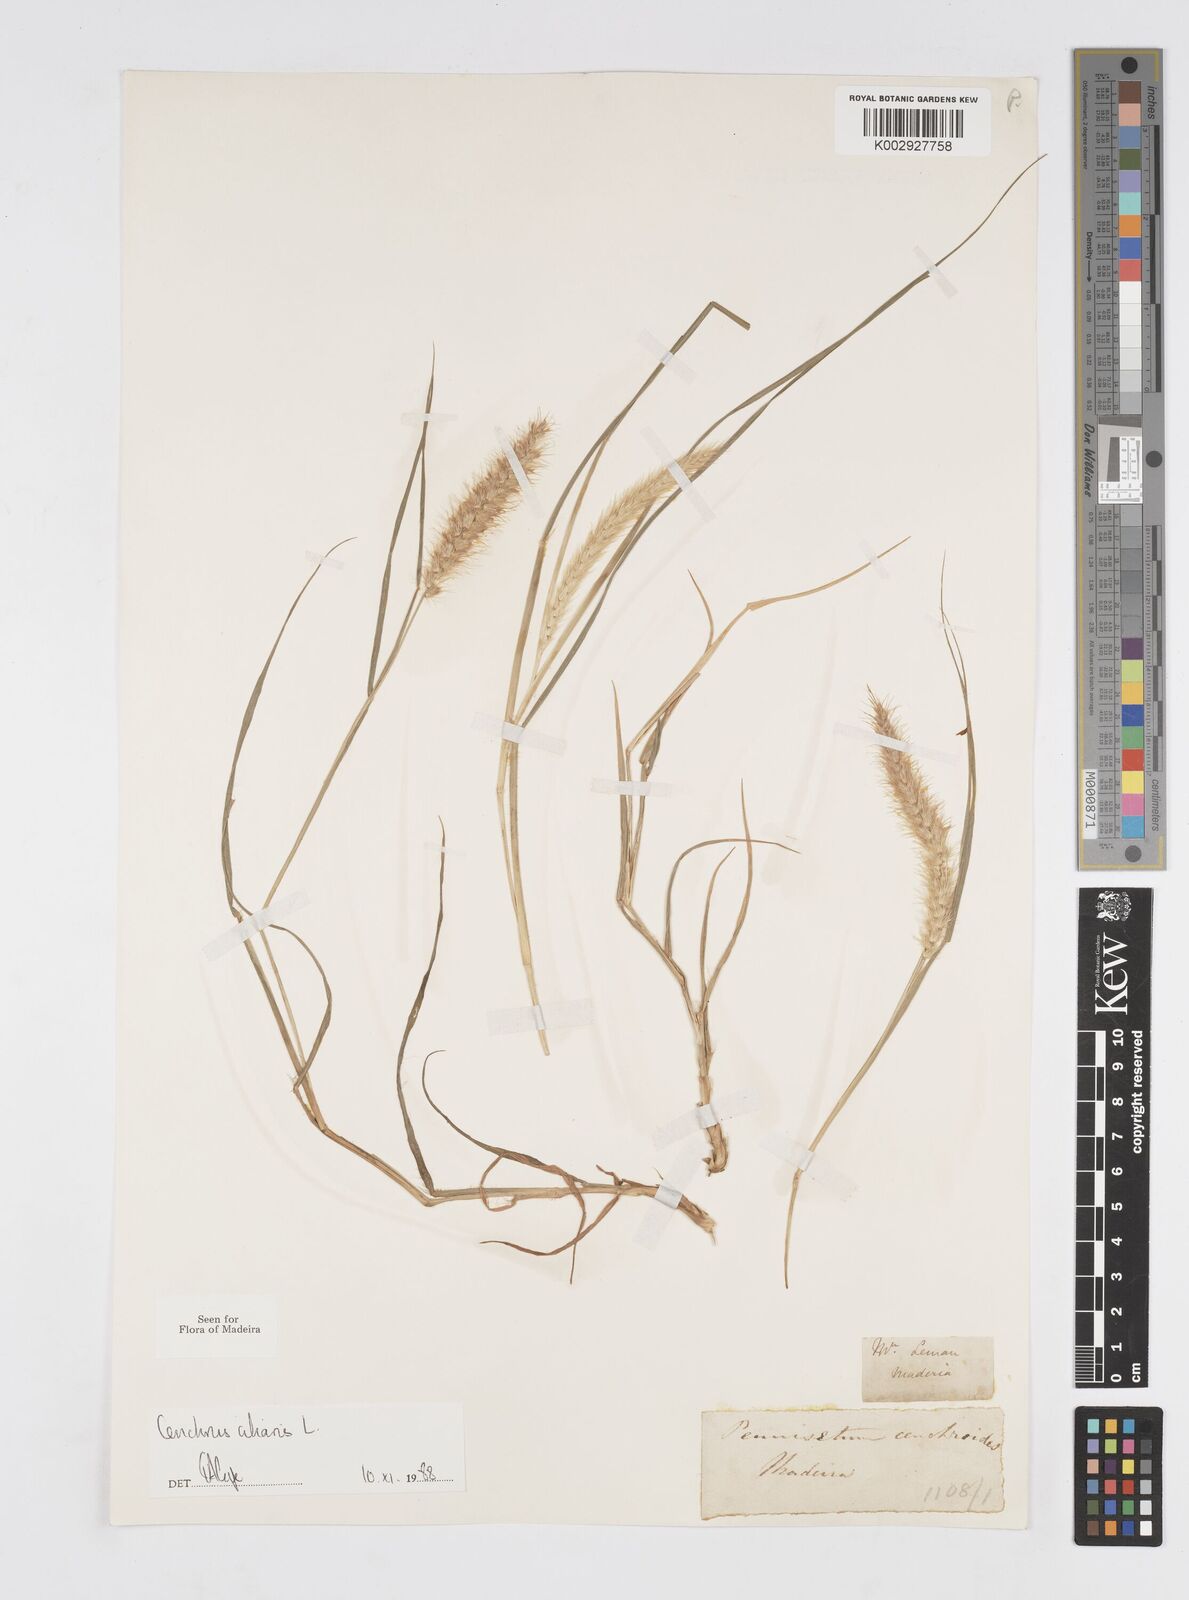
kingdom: Plantae
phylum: Tracheophyta
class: Liliopsida
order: Poales
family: Poaceae
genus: Cenchrus
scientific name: Cenchrus ciliaris
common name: Buffelgrass
